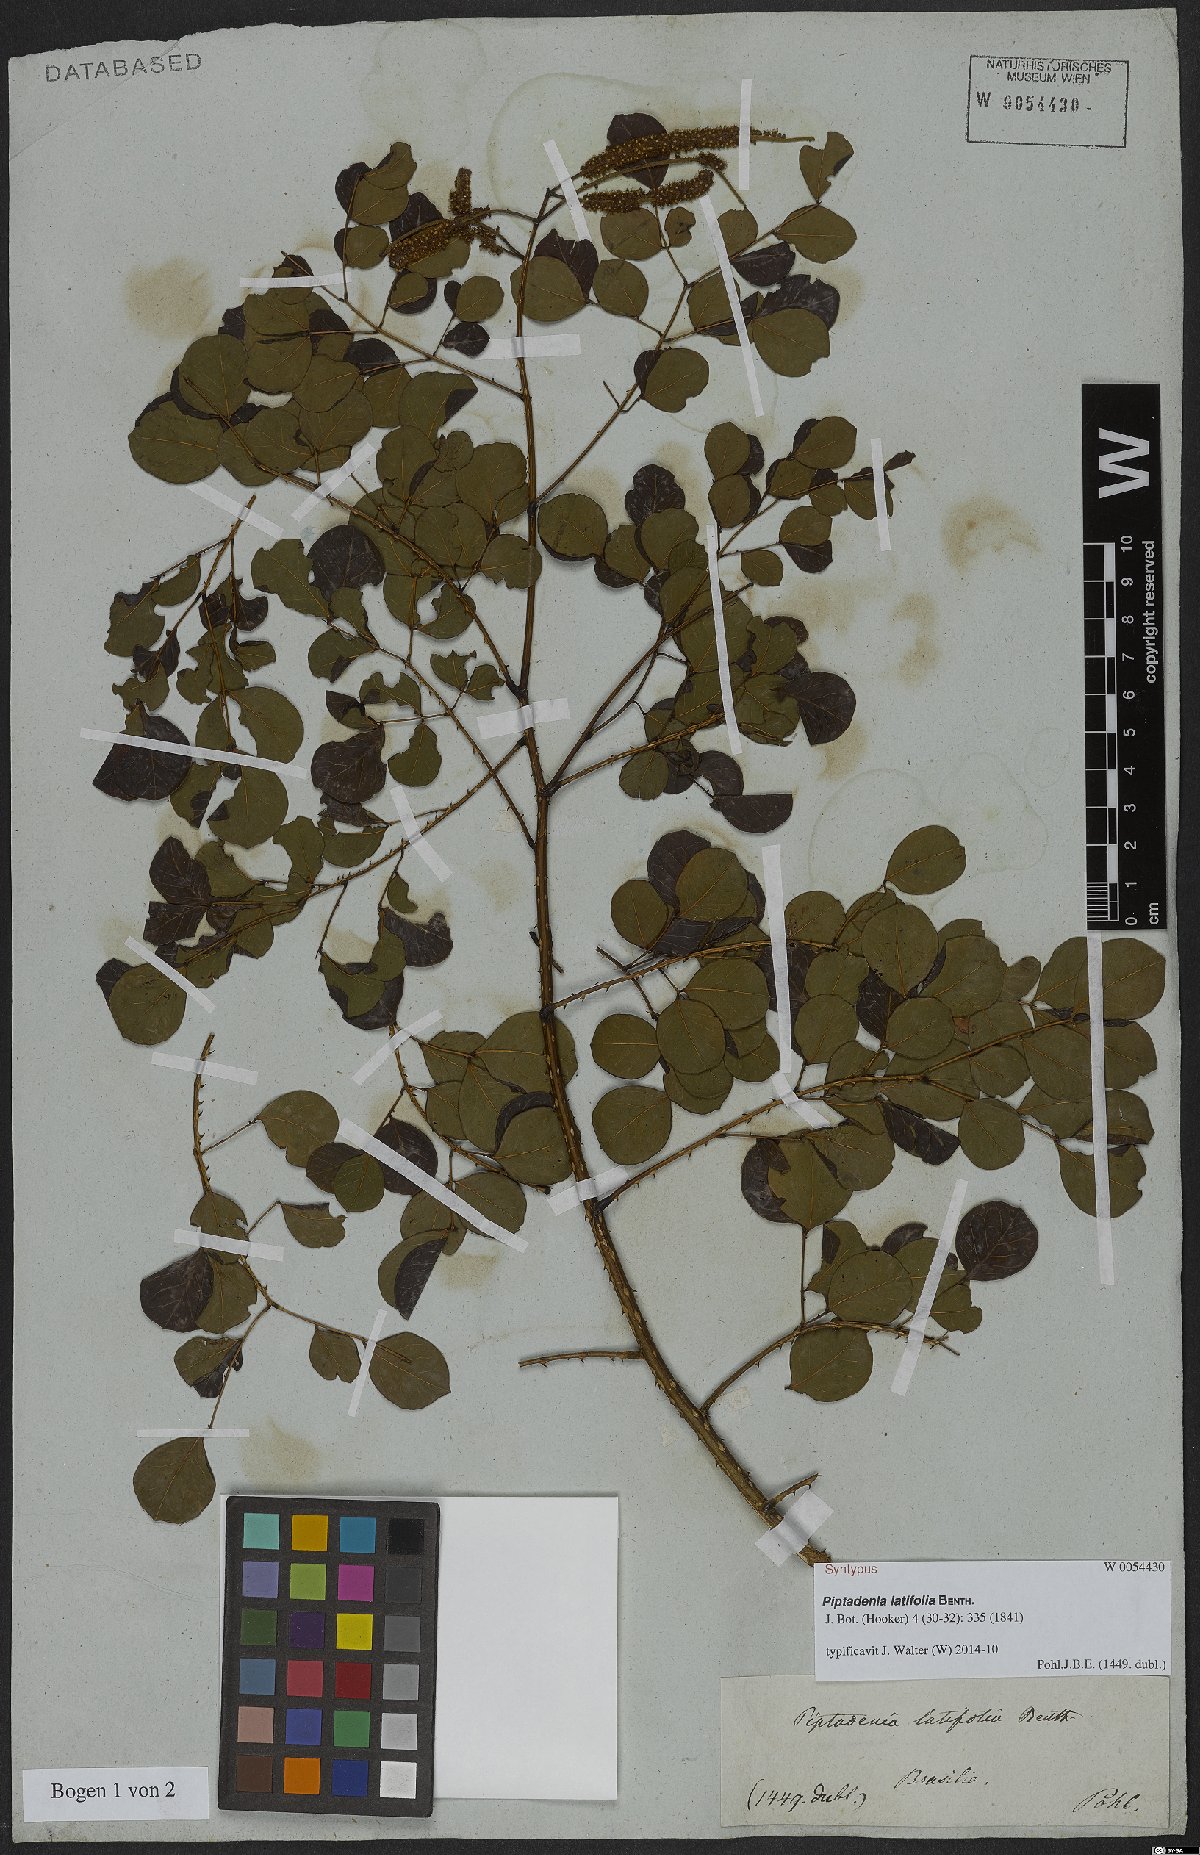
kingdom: Plantae
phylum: Tracheophyta
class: Magnoliopsida
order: Fabales
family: Fabaceae
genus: Piptadenia
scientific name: Piptadenia adiantoides
